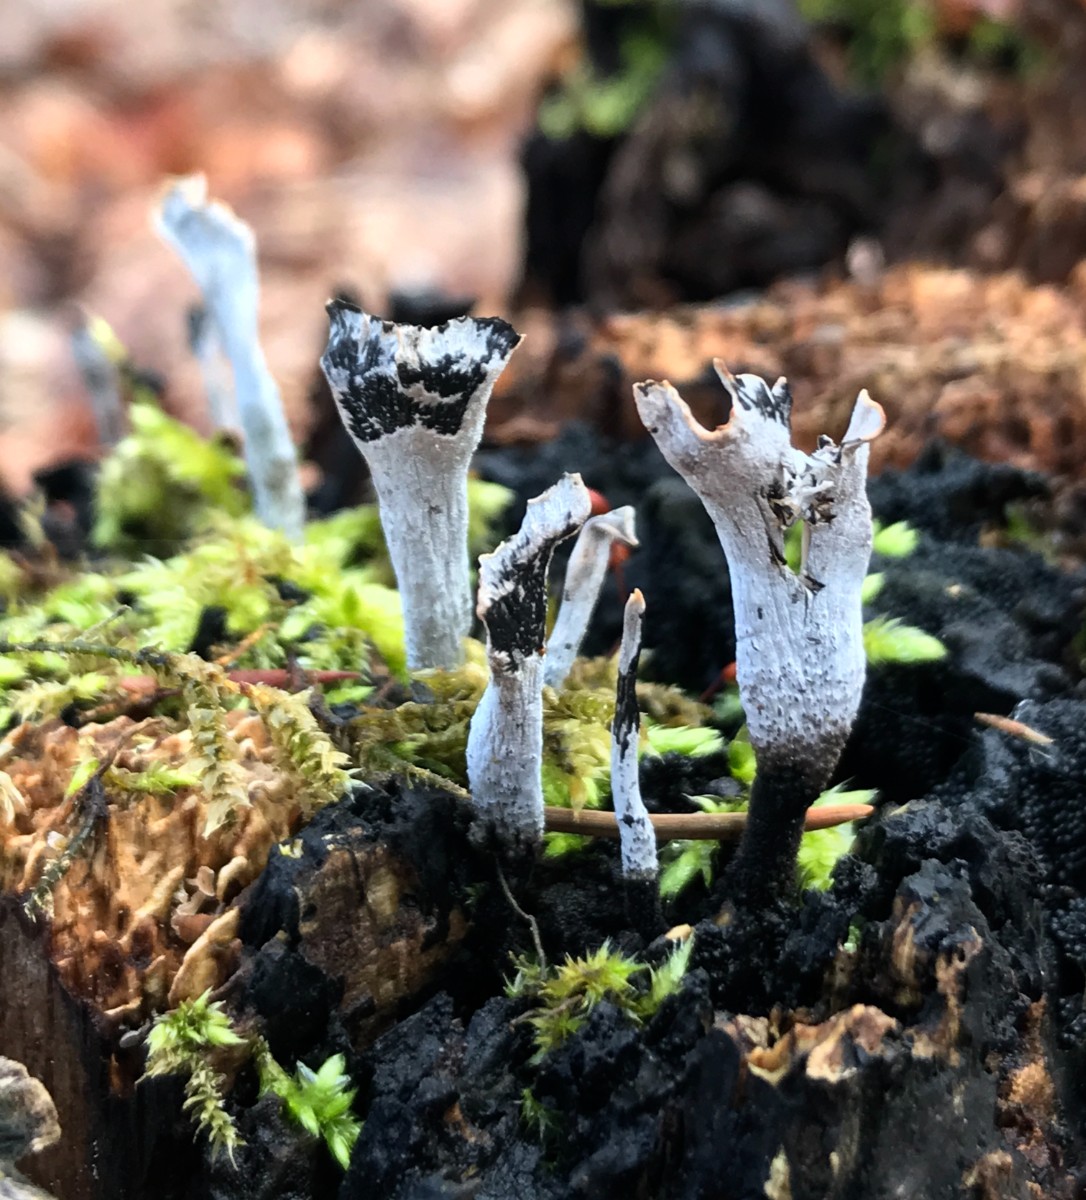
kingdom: Fungi
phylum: Ascomycota
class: Sordariomycetes
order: Xylariales
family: Xylariaceae
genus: Xylaria
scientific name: Xylaria hypoxylon
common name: grenet stødsvamp
